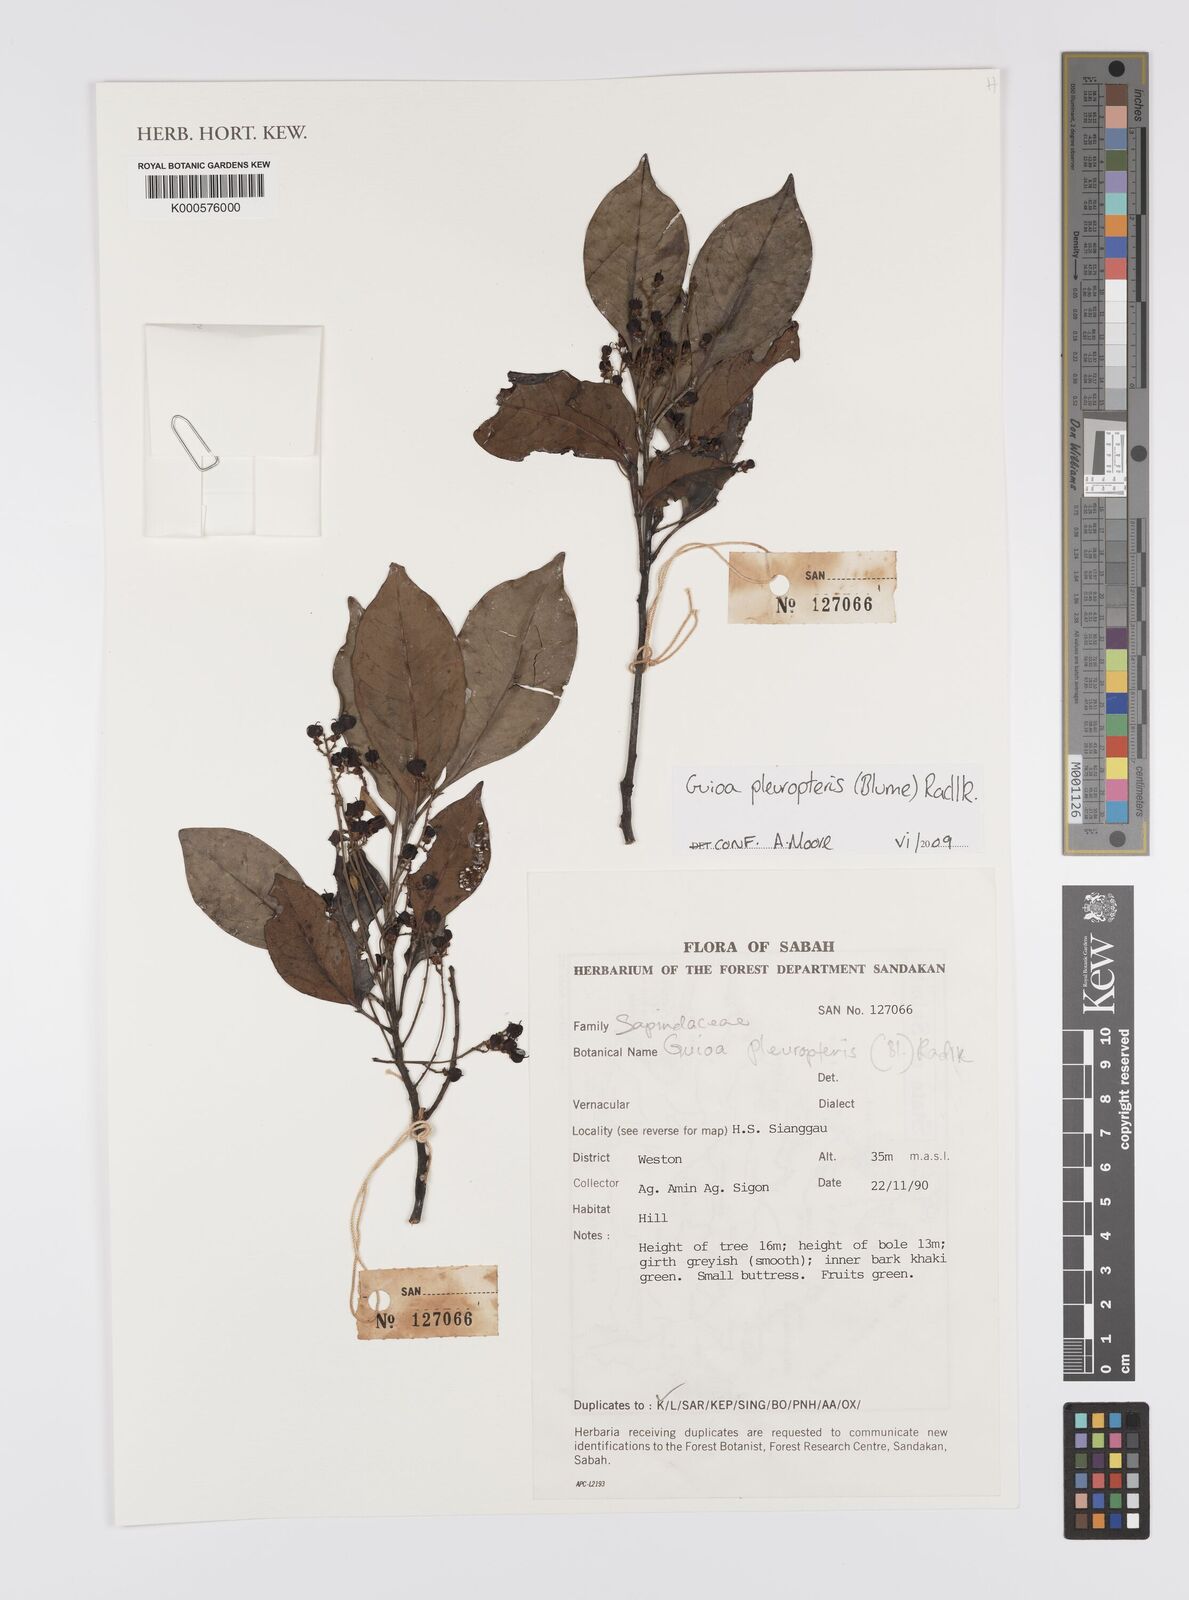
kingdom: Plantae
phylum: Tracheophyta
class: Magnoliopsida
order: Sapindales
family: Sapindaceae
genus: Guioa
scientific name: Guioa pleuropteris
